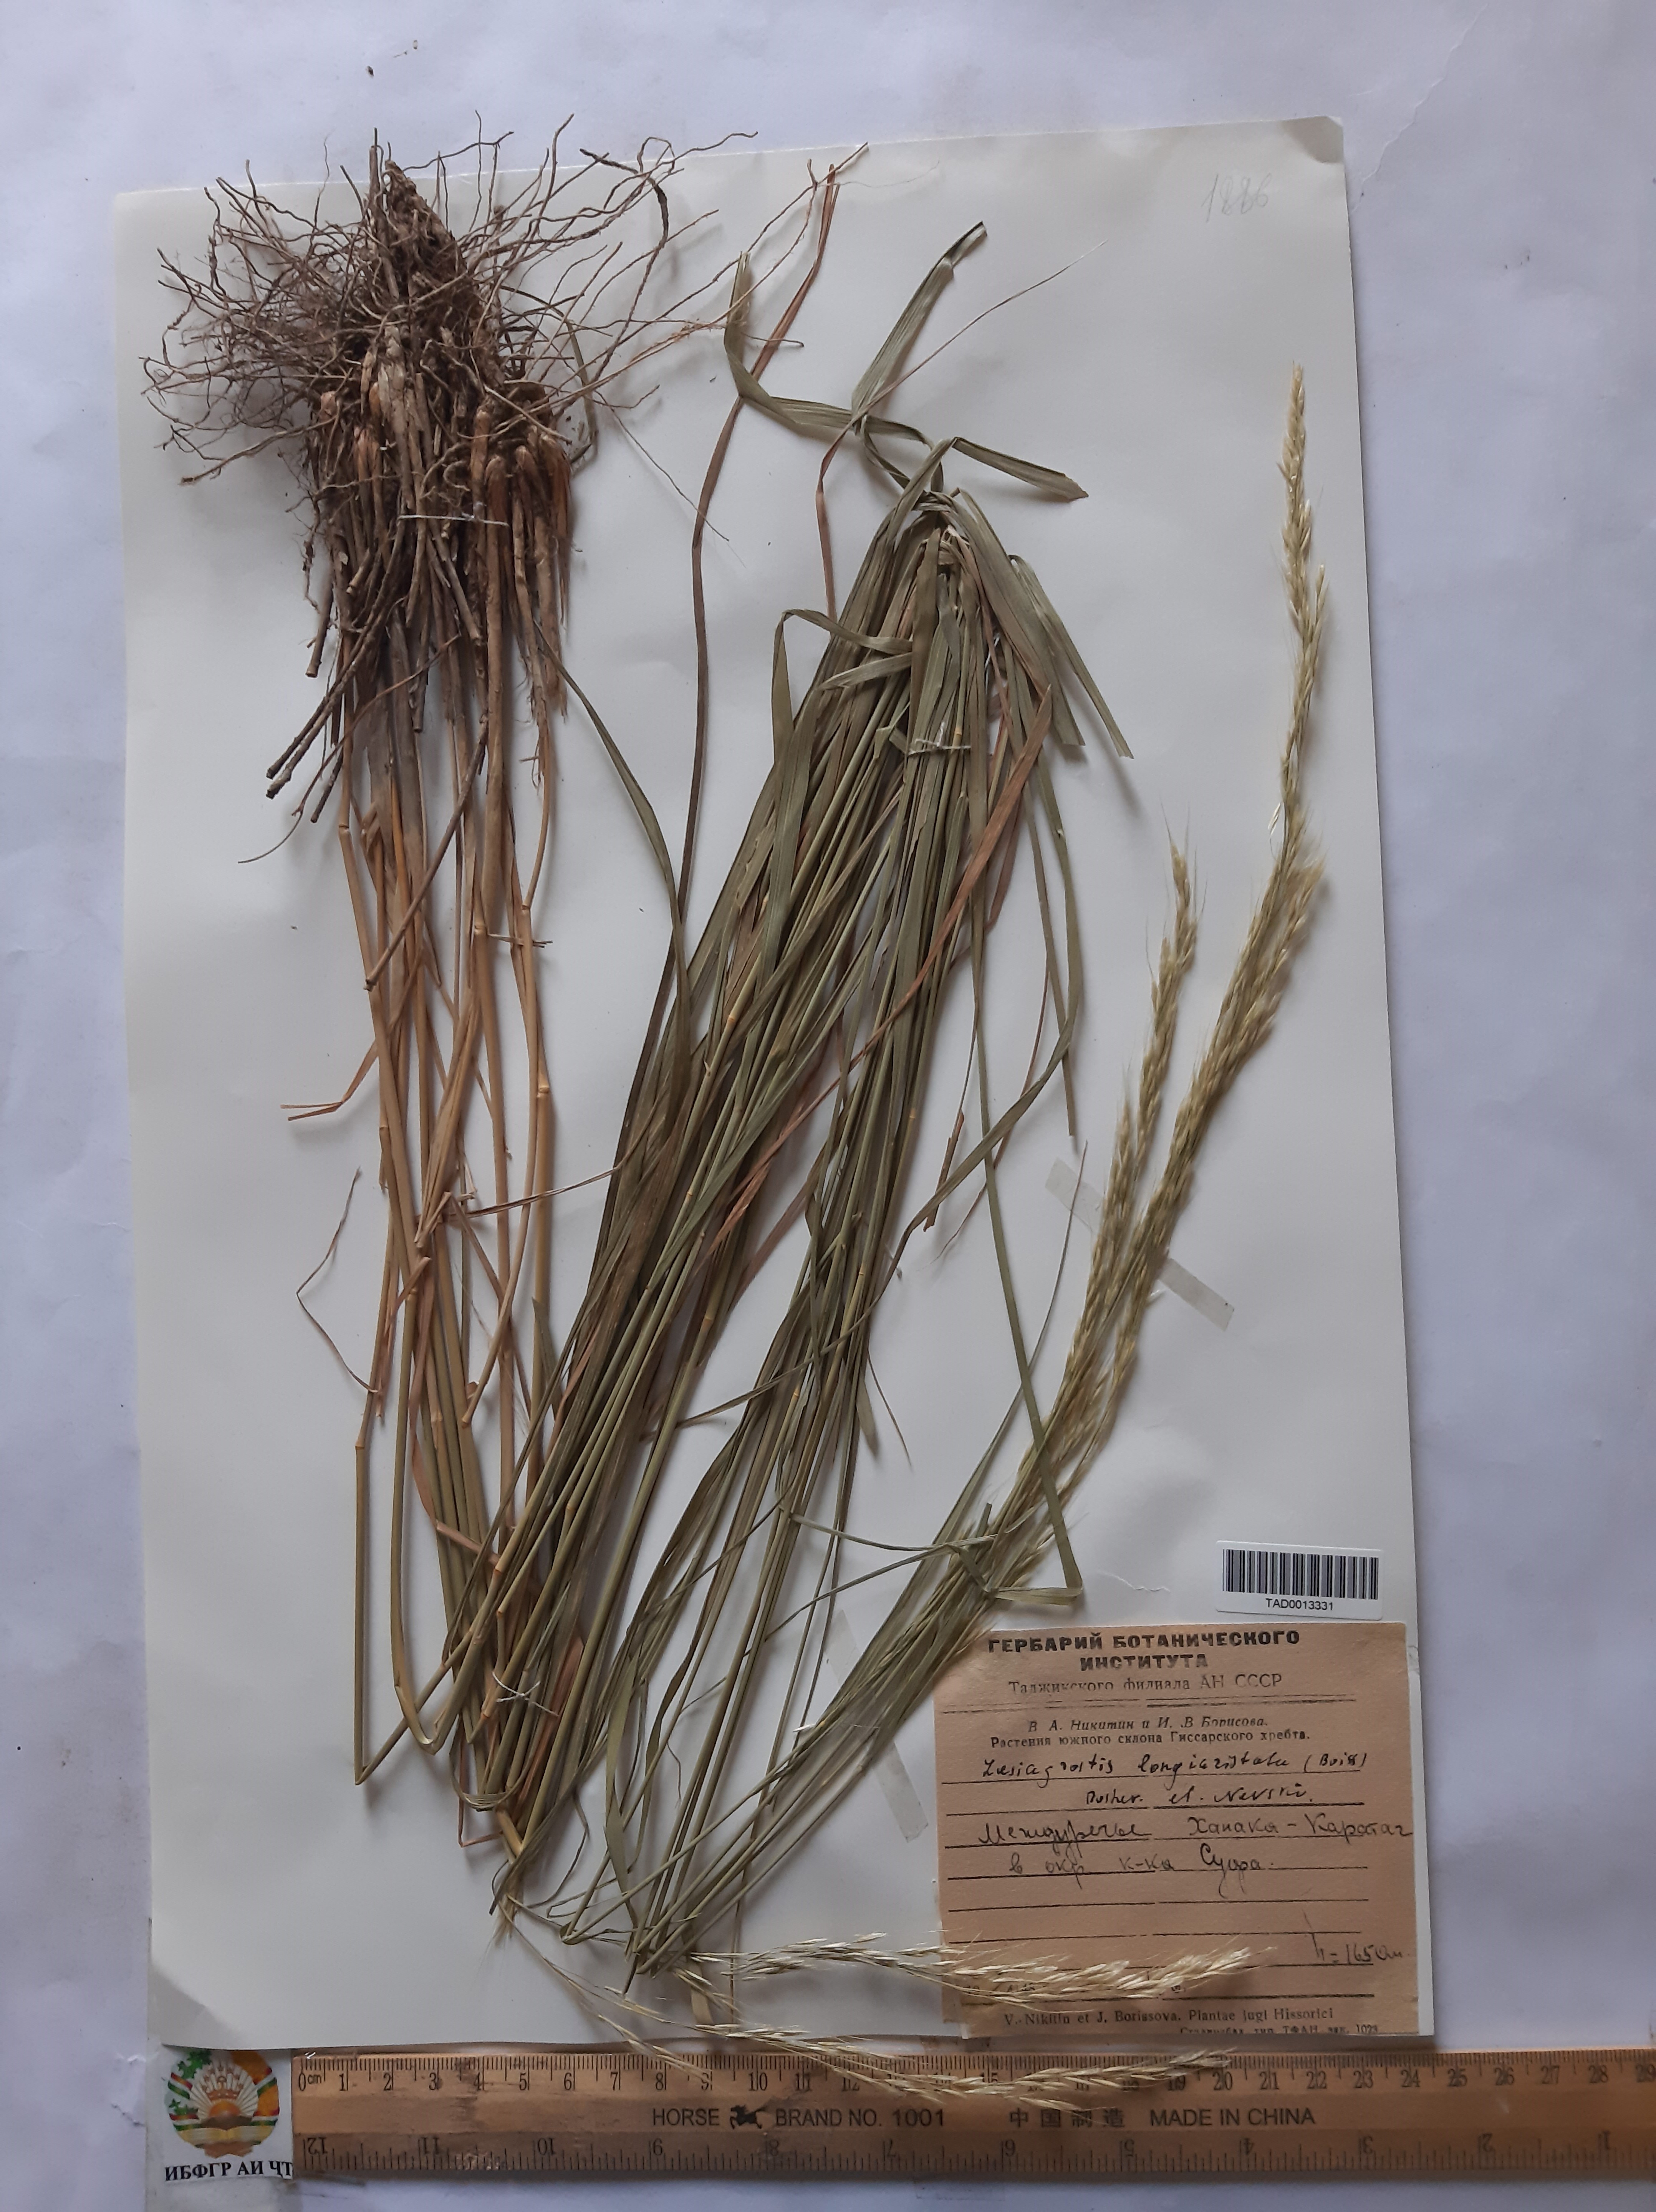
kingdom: Plantae
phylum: Tracheophyta
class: Liliopsida
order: Poales
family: Poaceae
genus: Achnatherum
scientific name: Achnatherum turcomanicum
